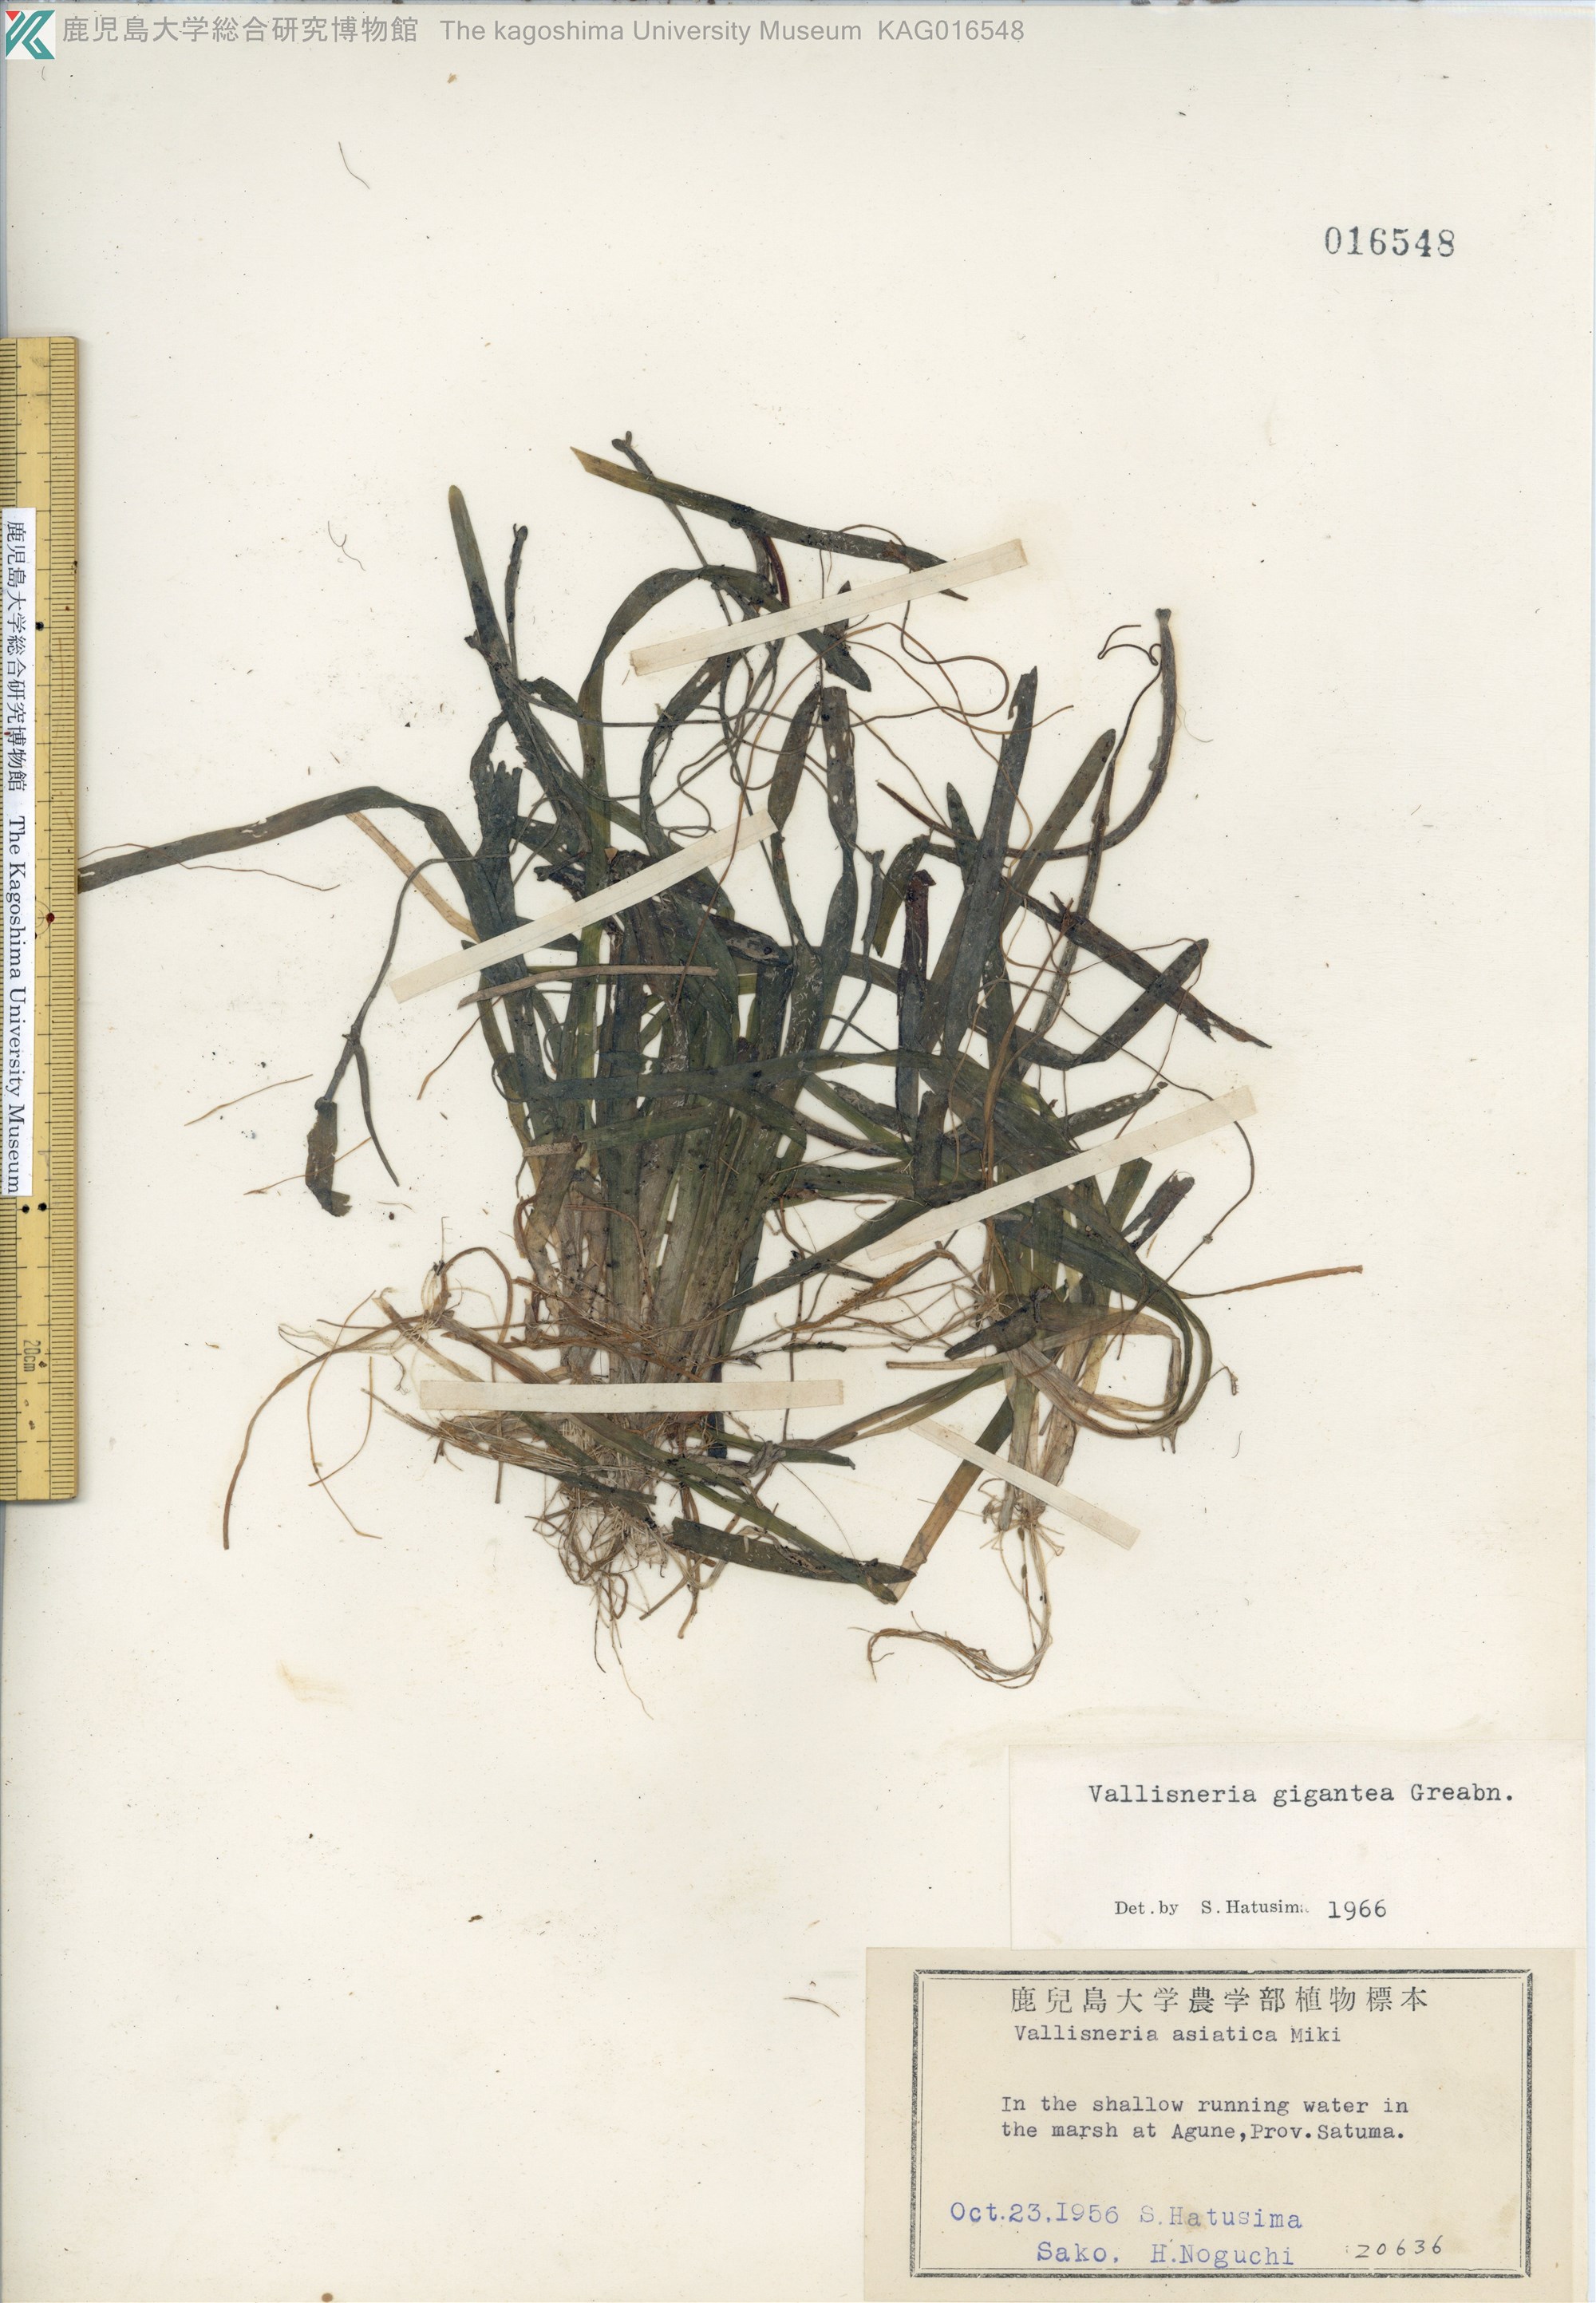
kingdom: Plantae
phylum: Tracheophyta
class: Liliopsida
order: Alismatales
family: Hydrocharitaceae
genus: Vallisneria
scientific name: Vallisneria natans
